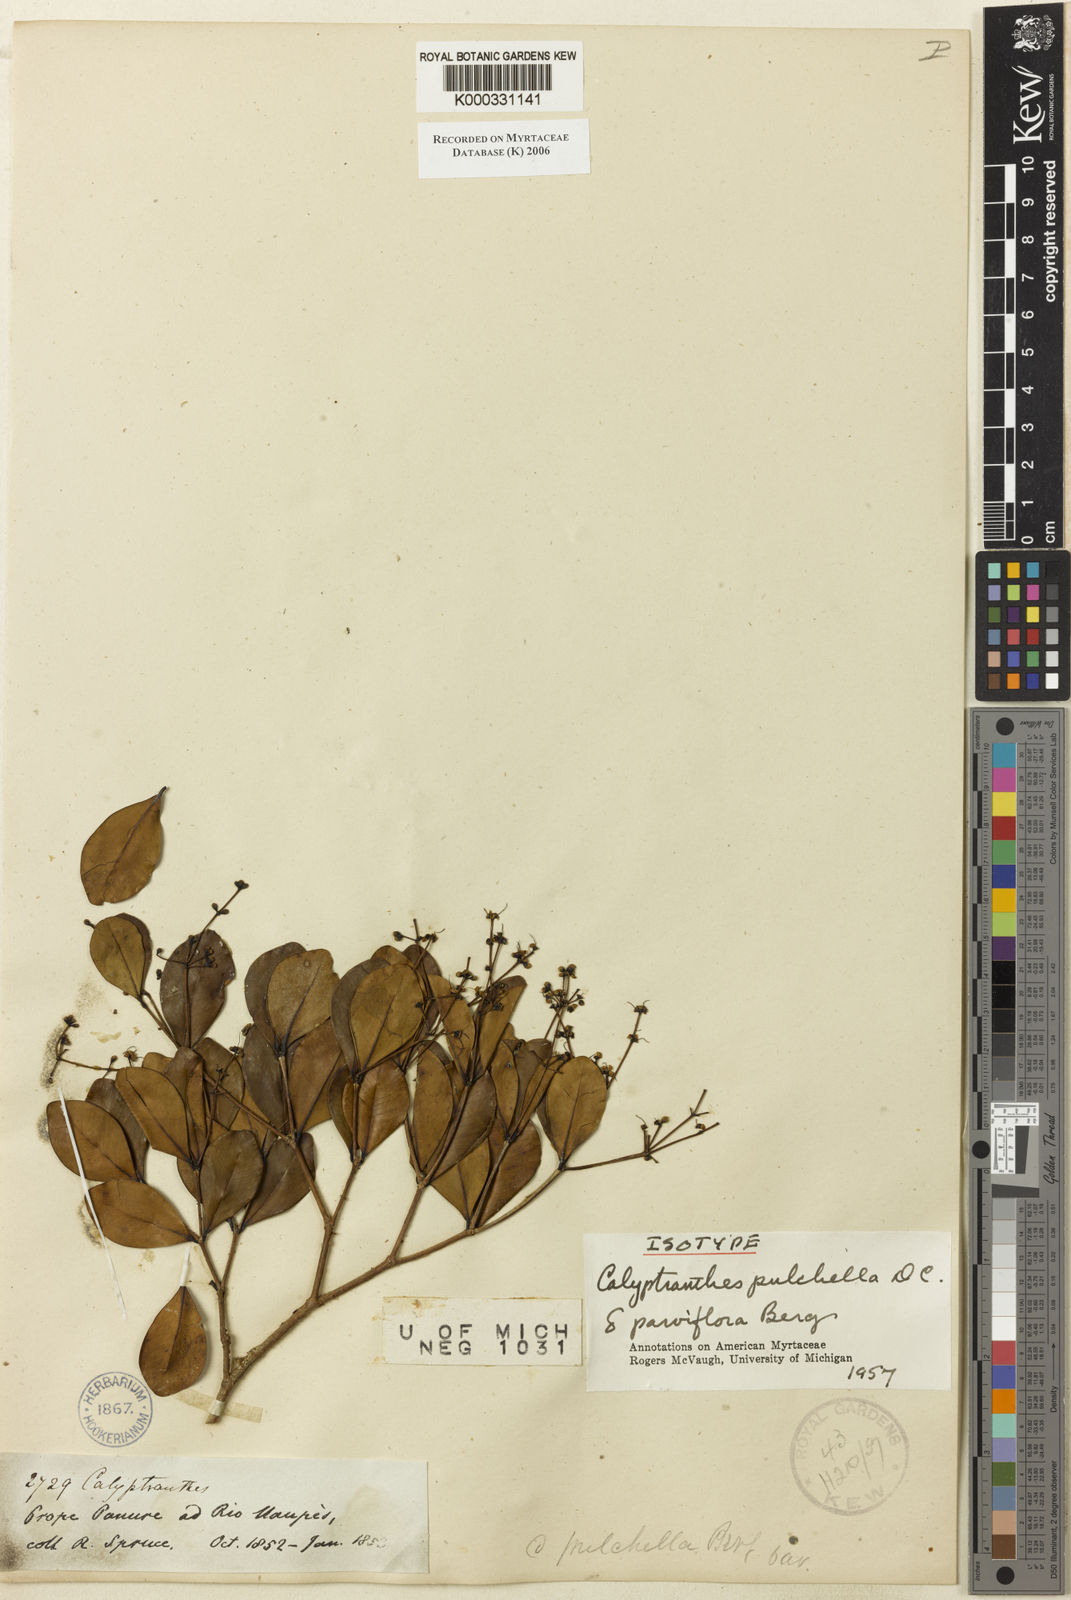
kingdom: Plantae
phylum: Tracheophyta
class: Magnoliopsida
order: Myrtales
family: Myrtaceae
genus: Myrcia
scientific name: Myrcia pulchella
